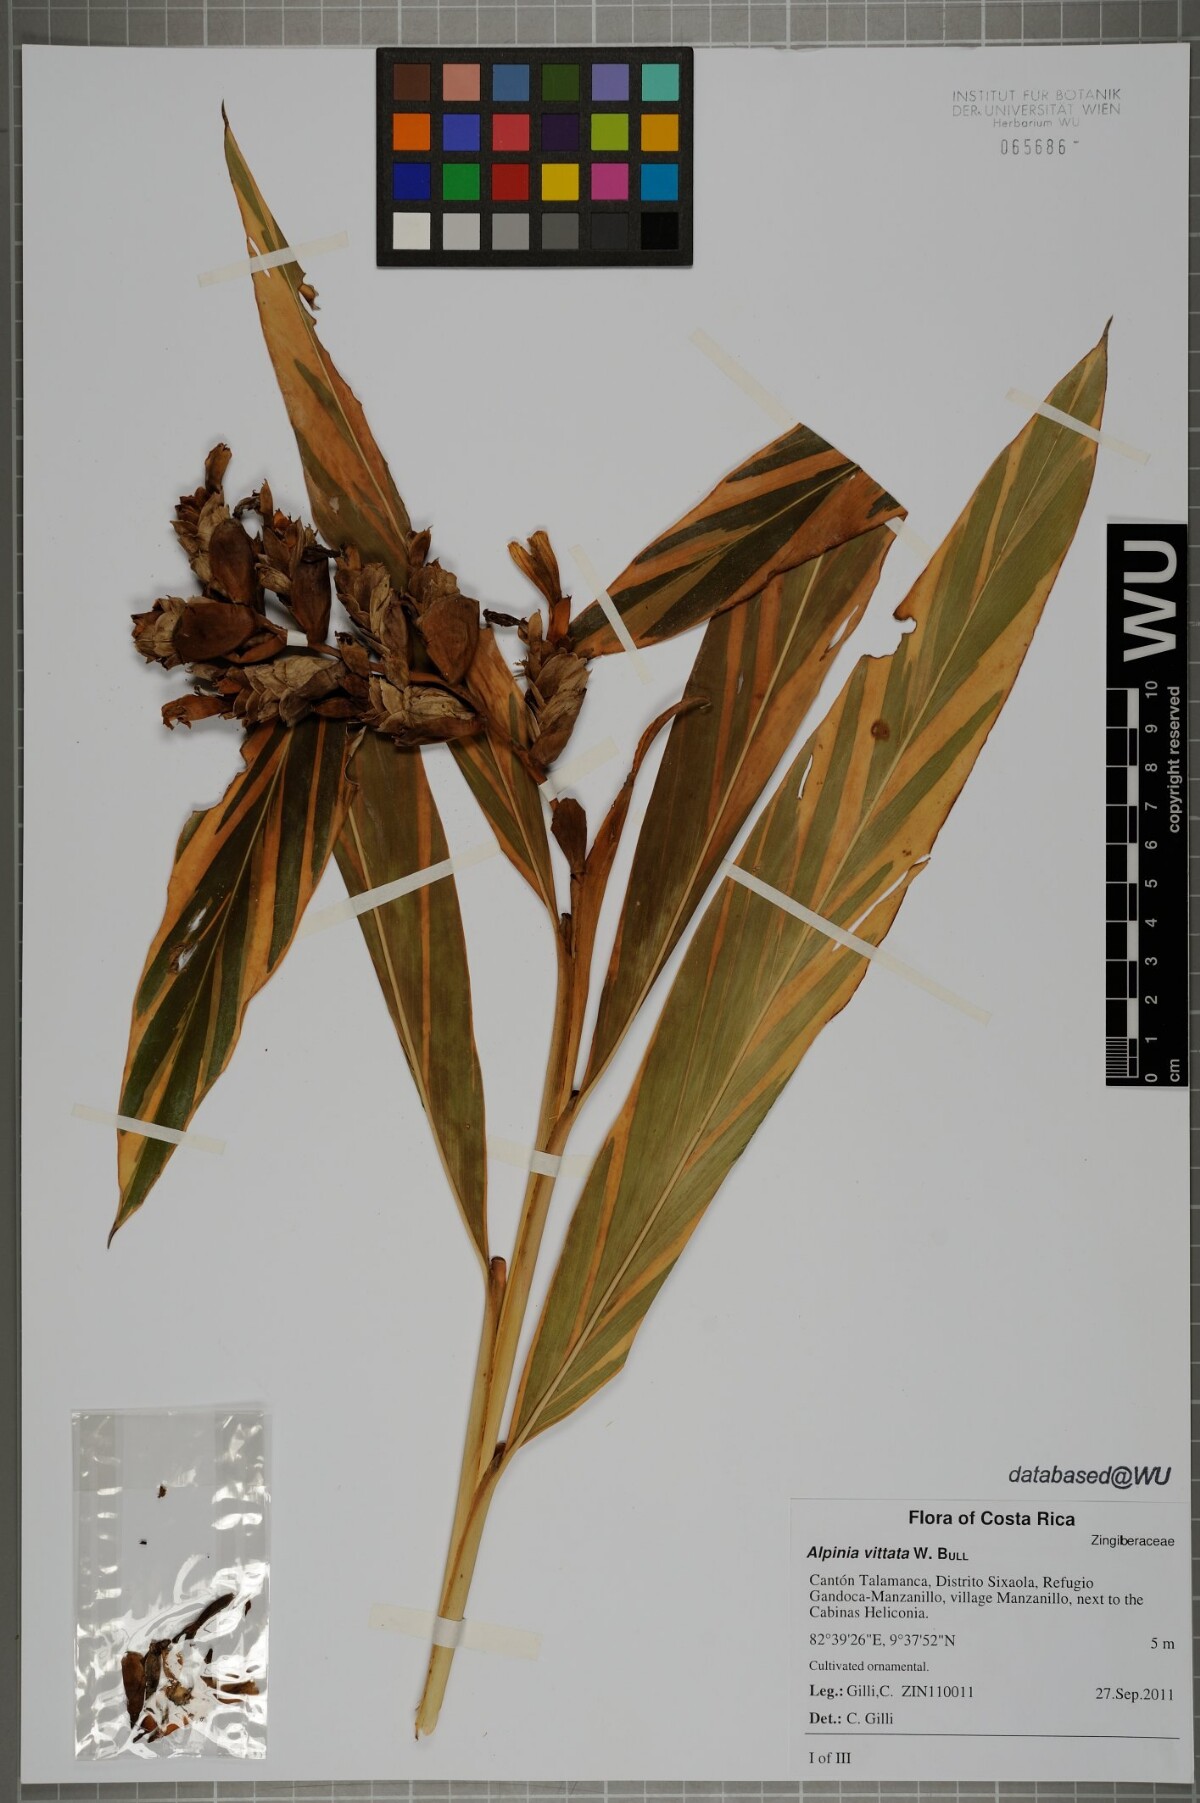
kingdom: Plantae
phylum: Tracheophyta
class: Liliopsida
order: Zingiberales
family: Zingiberaceae
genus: Alpinia
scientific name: Alpinia vittata
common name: Variegate-ginger
